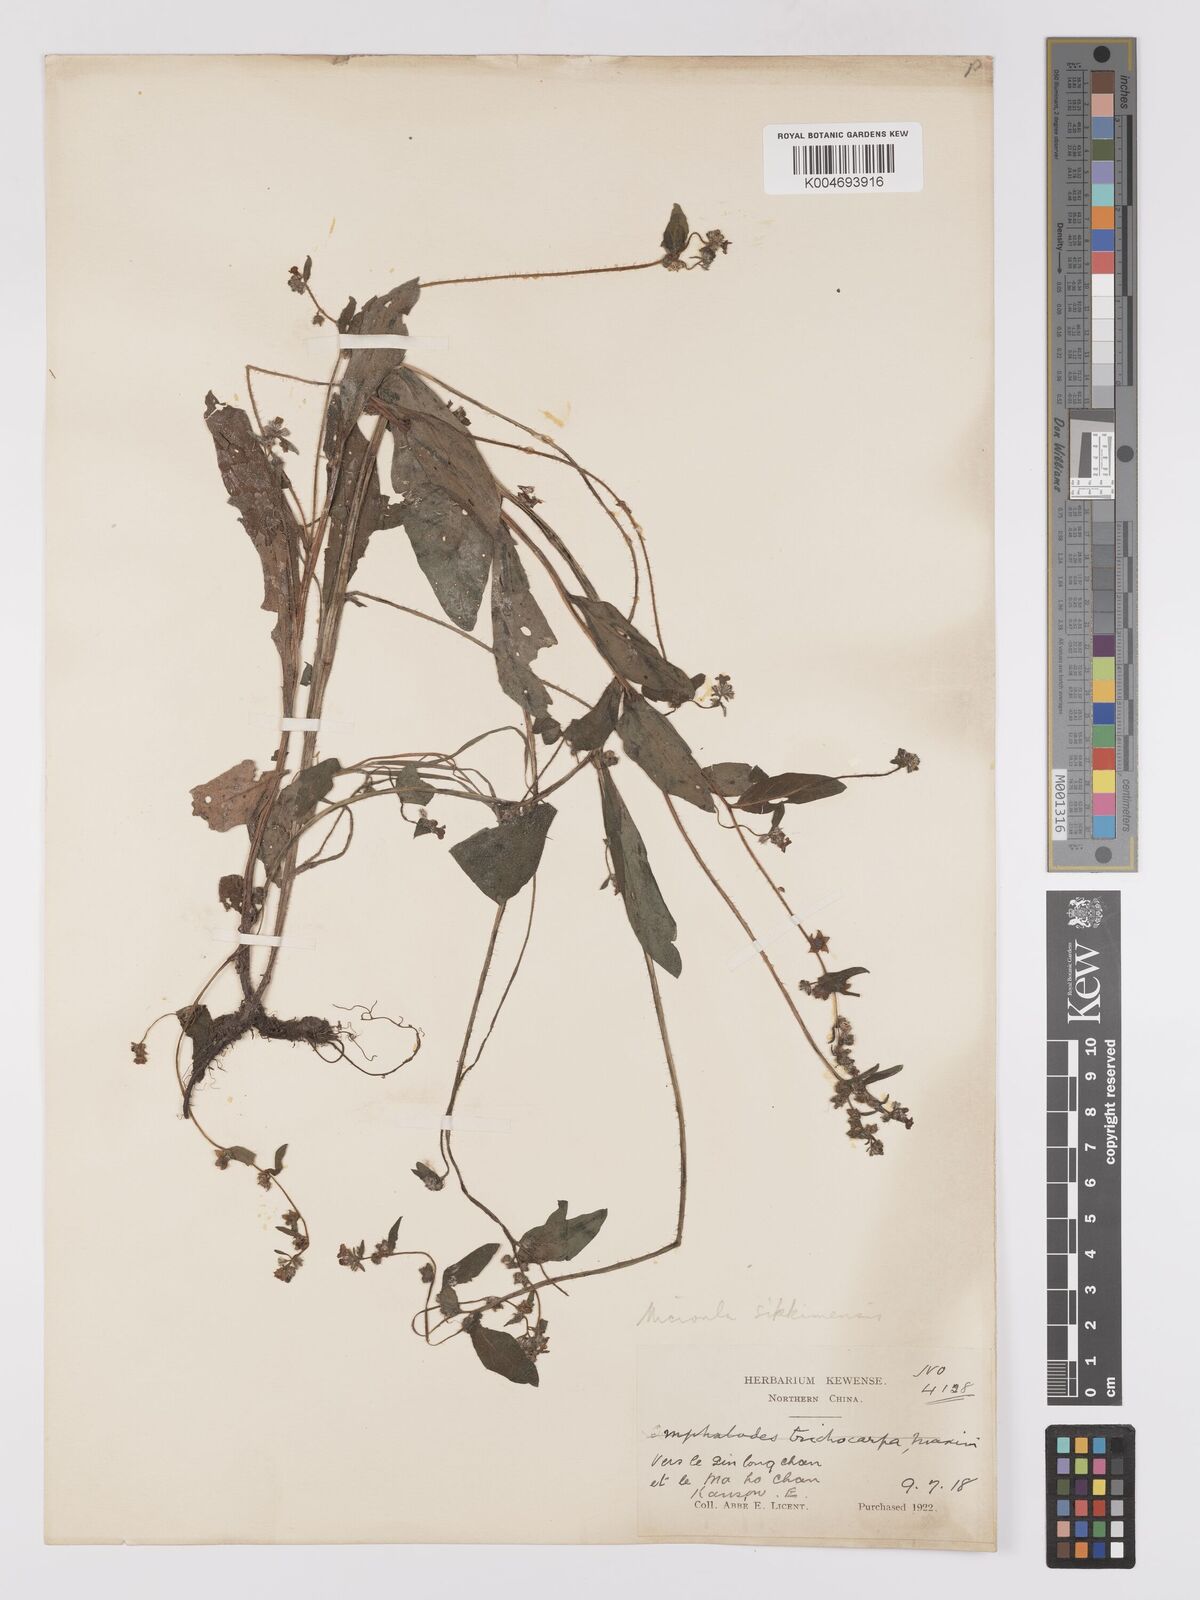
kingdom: Plantae
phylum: Tracheophyta
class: Magnoliopsida
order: Boraginales
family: Boraginaceae
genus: Microula
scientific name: Microula sikkimensis
